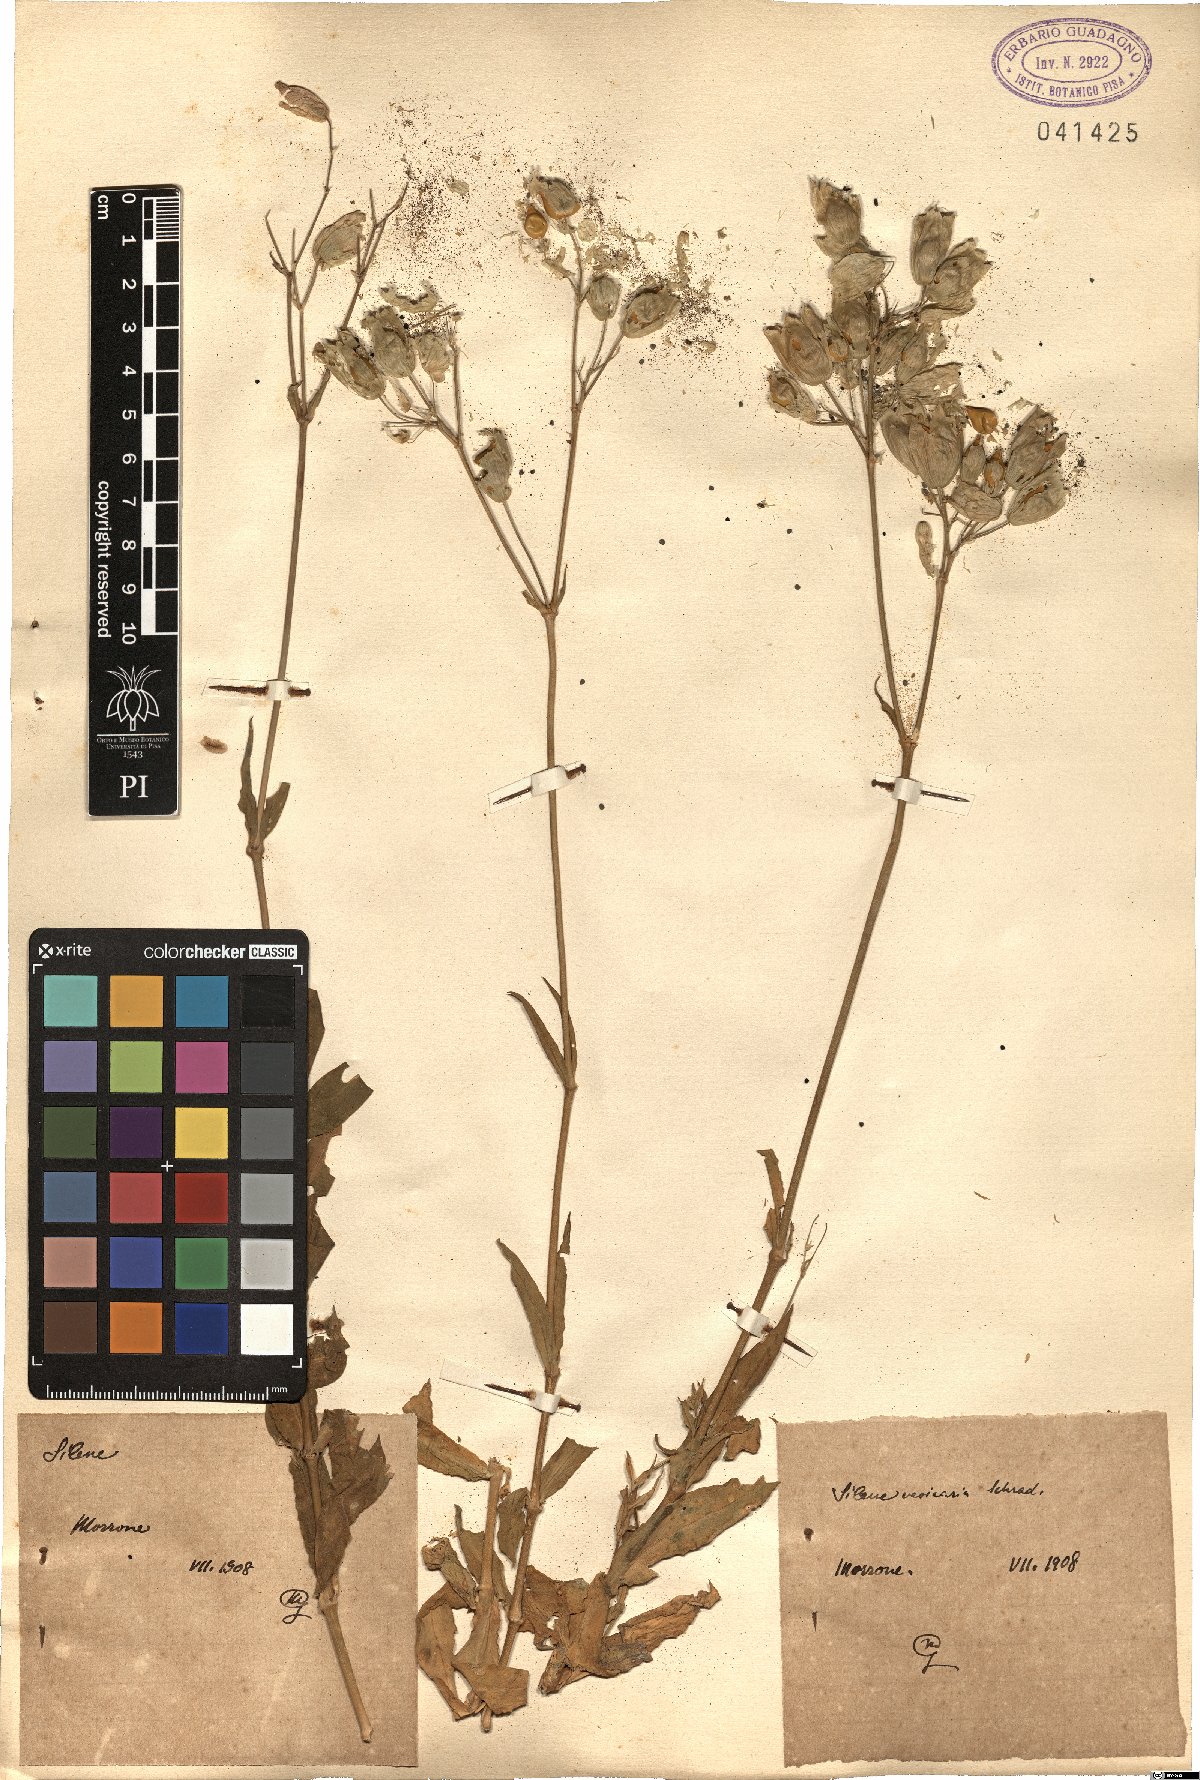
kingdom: Plantae
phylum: Tracheophyta
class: Magnoliopsida
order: Caryophyllales
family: Caryophyllaceae
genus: Silene
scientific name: Silene vulgaris
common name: Bladder campion
